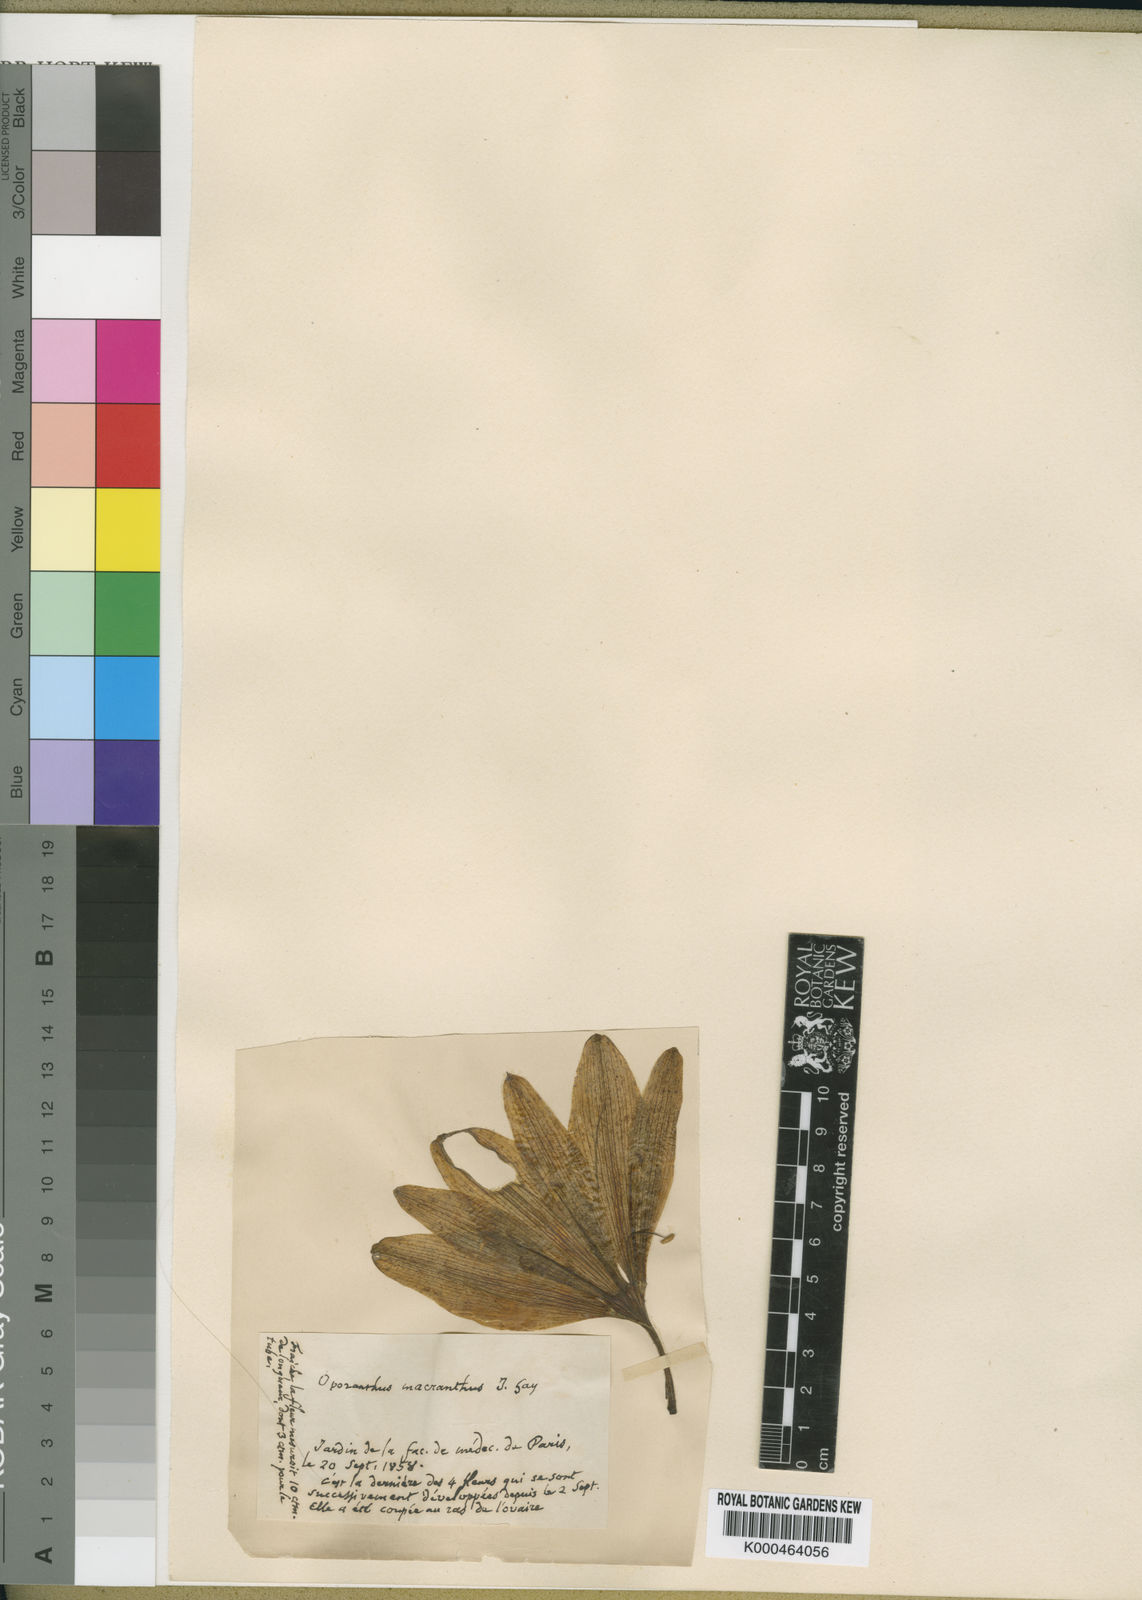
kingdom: Plantae
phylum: Tracheophyta
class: Liliopsida
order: Asparagales
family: Amaryllidaceae
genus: Sternbergia
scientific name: Sternbergia
